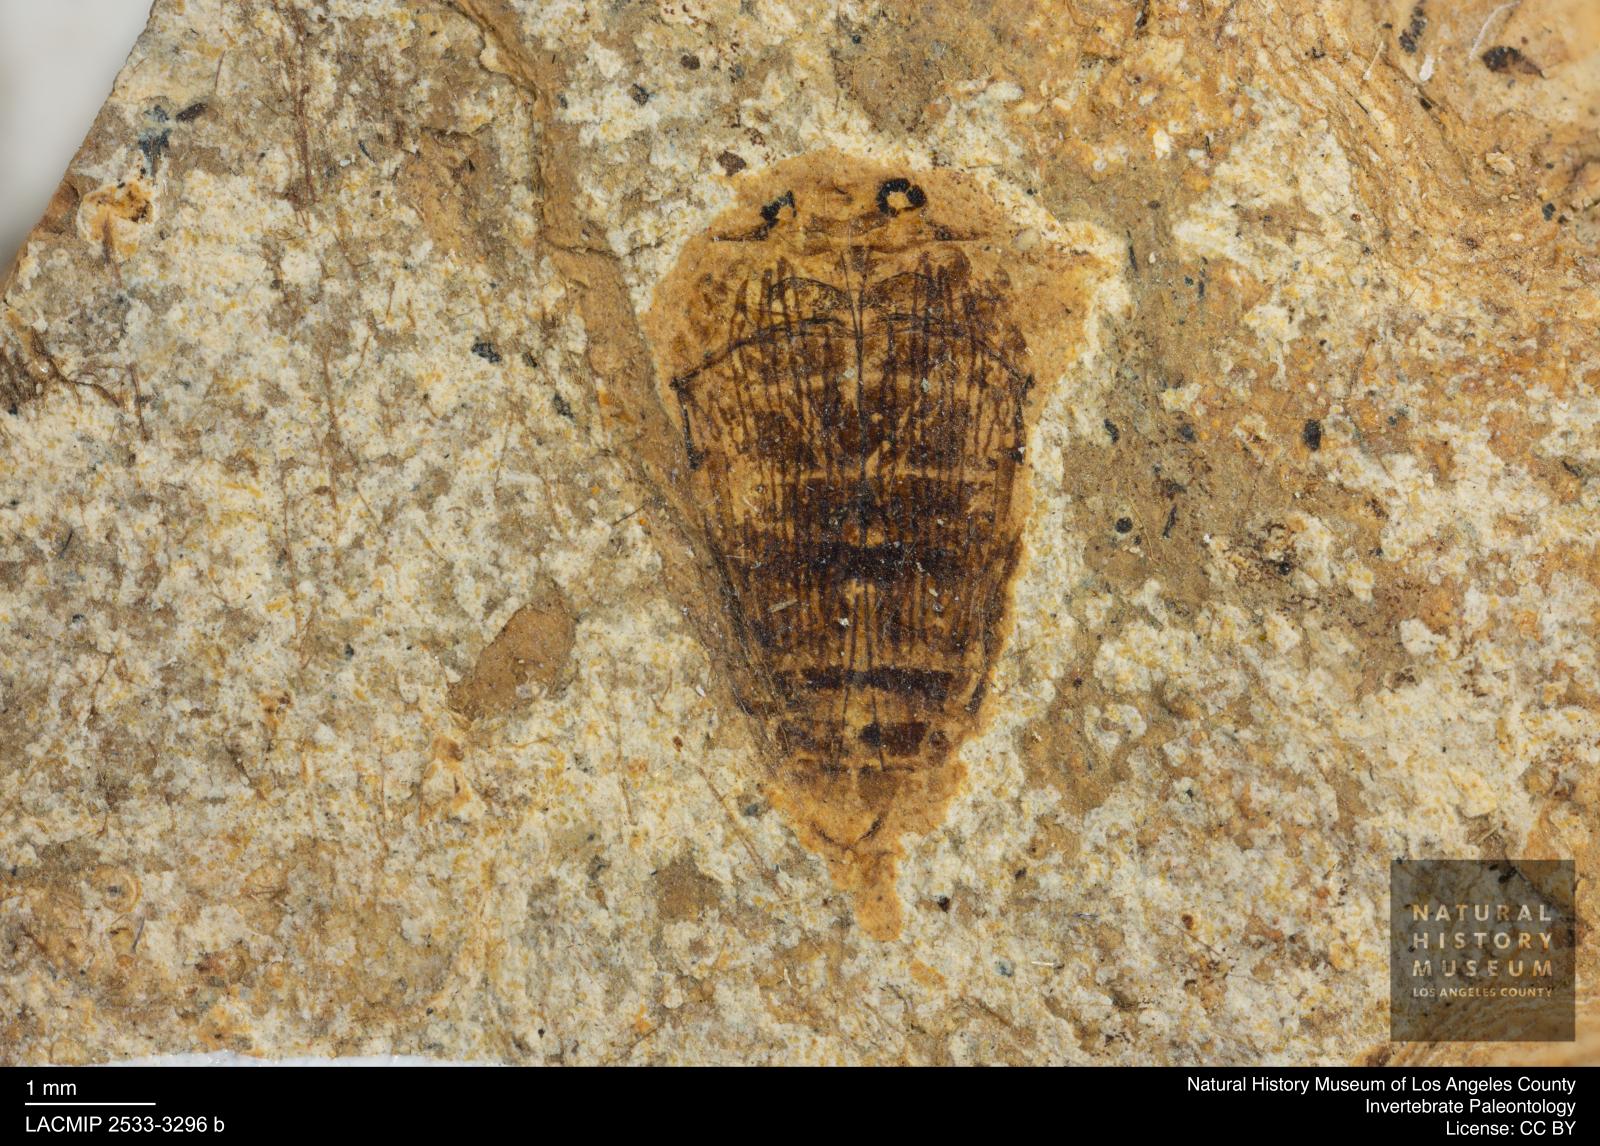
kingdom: Animalia
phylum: Arthropoda
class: Insecta
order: Coleoptera
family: Dytiscidae
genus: Laccophilus
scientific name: Laccophilus Palaeogyrinus strigatus
